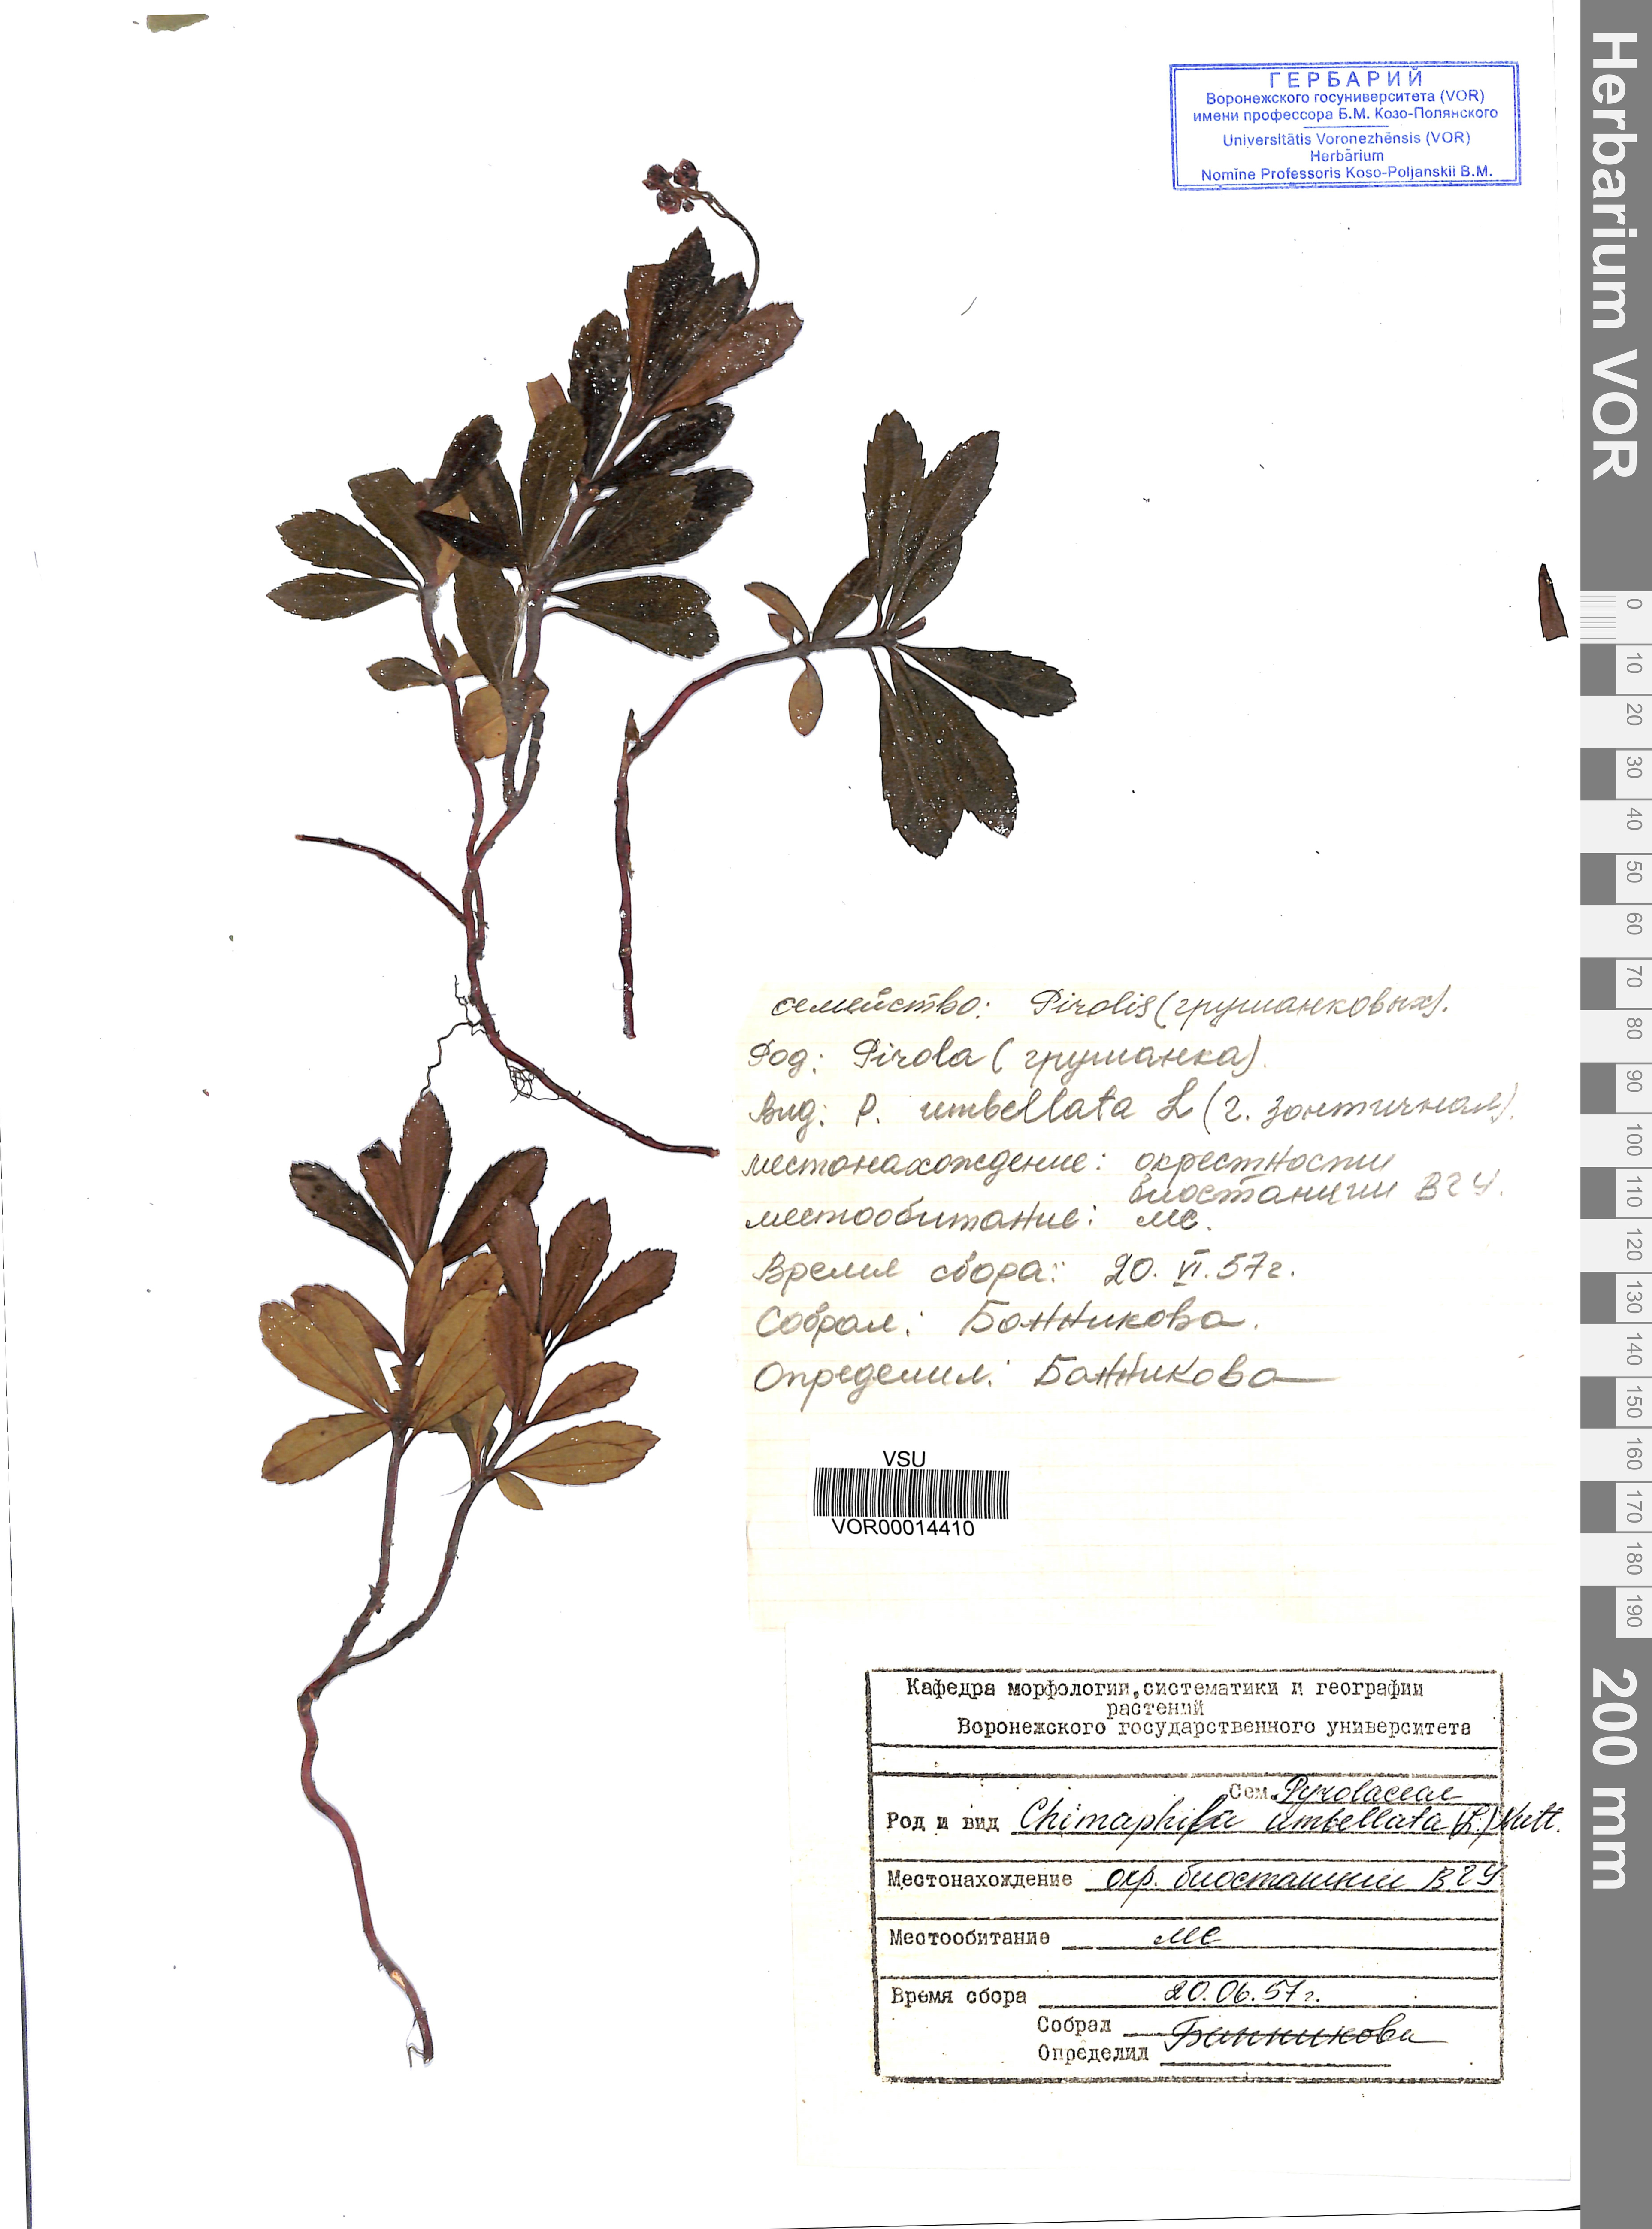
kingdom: Plantae
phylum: Tracheophyta
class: Magnoliopsida
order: Ericales
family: Ericaceae
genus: Chimaphila
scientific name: Chimaphila umbellata
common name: Pipsissewa
